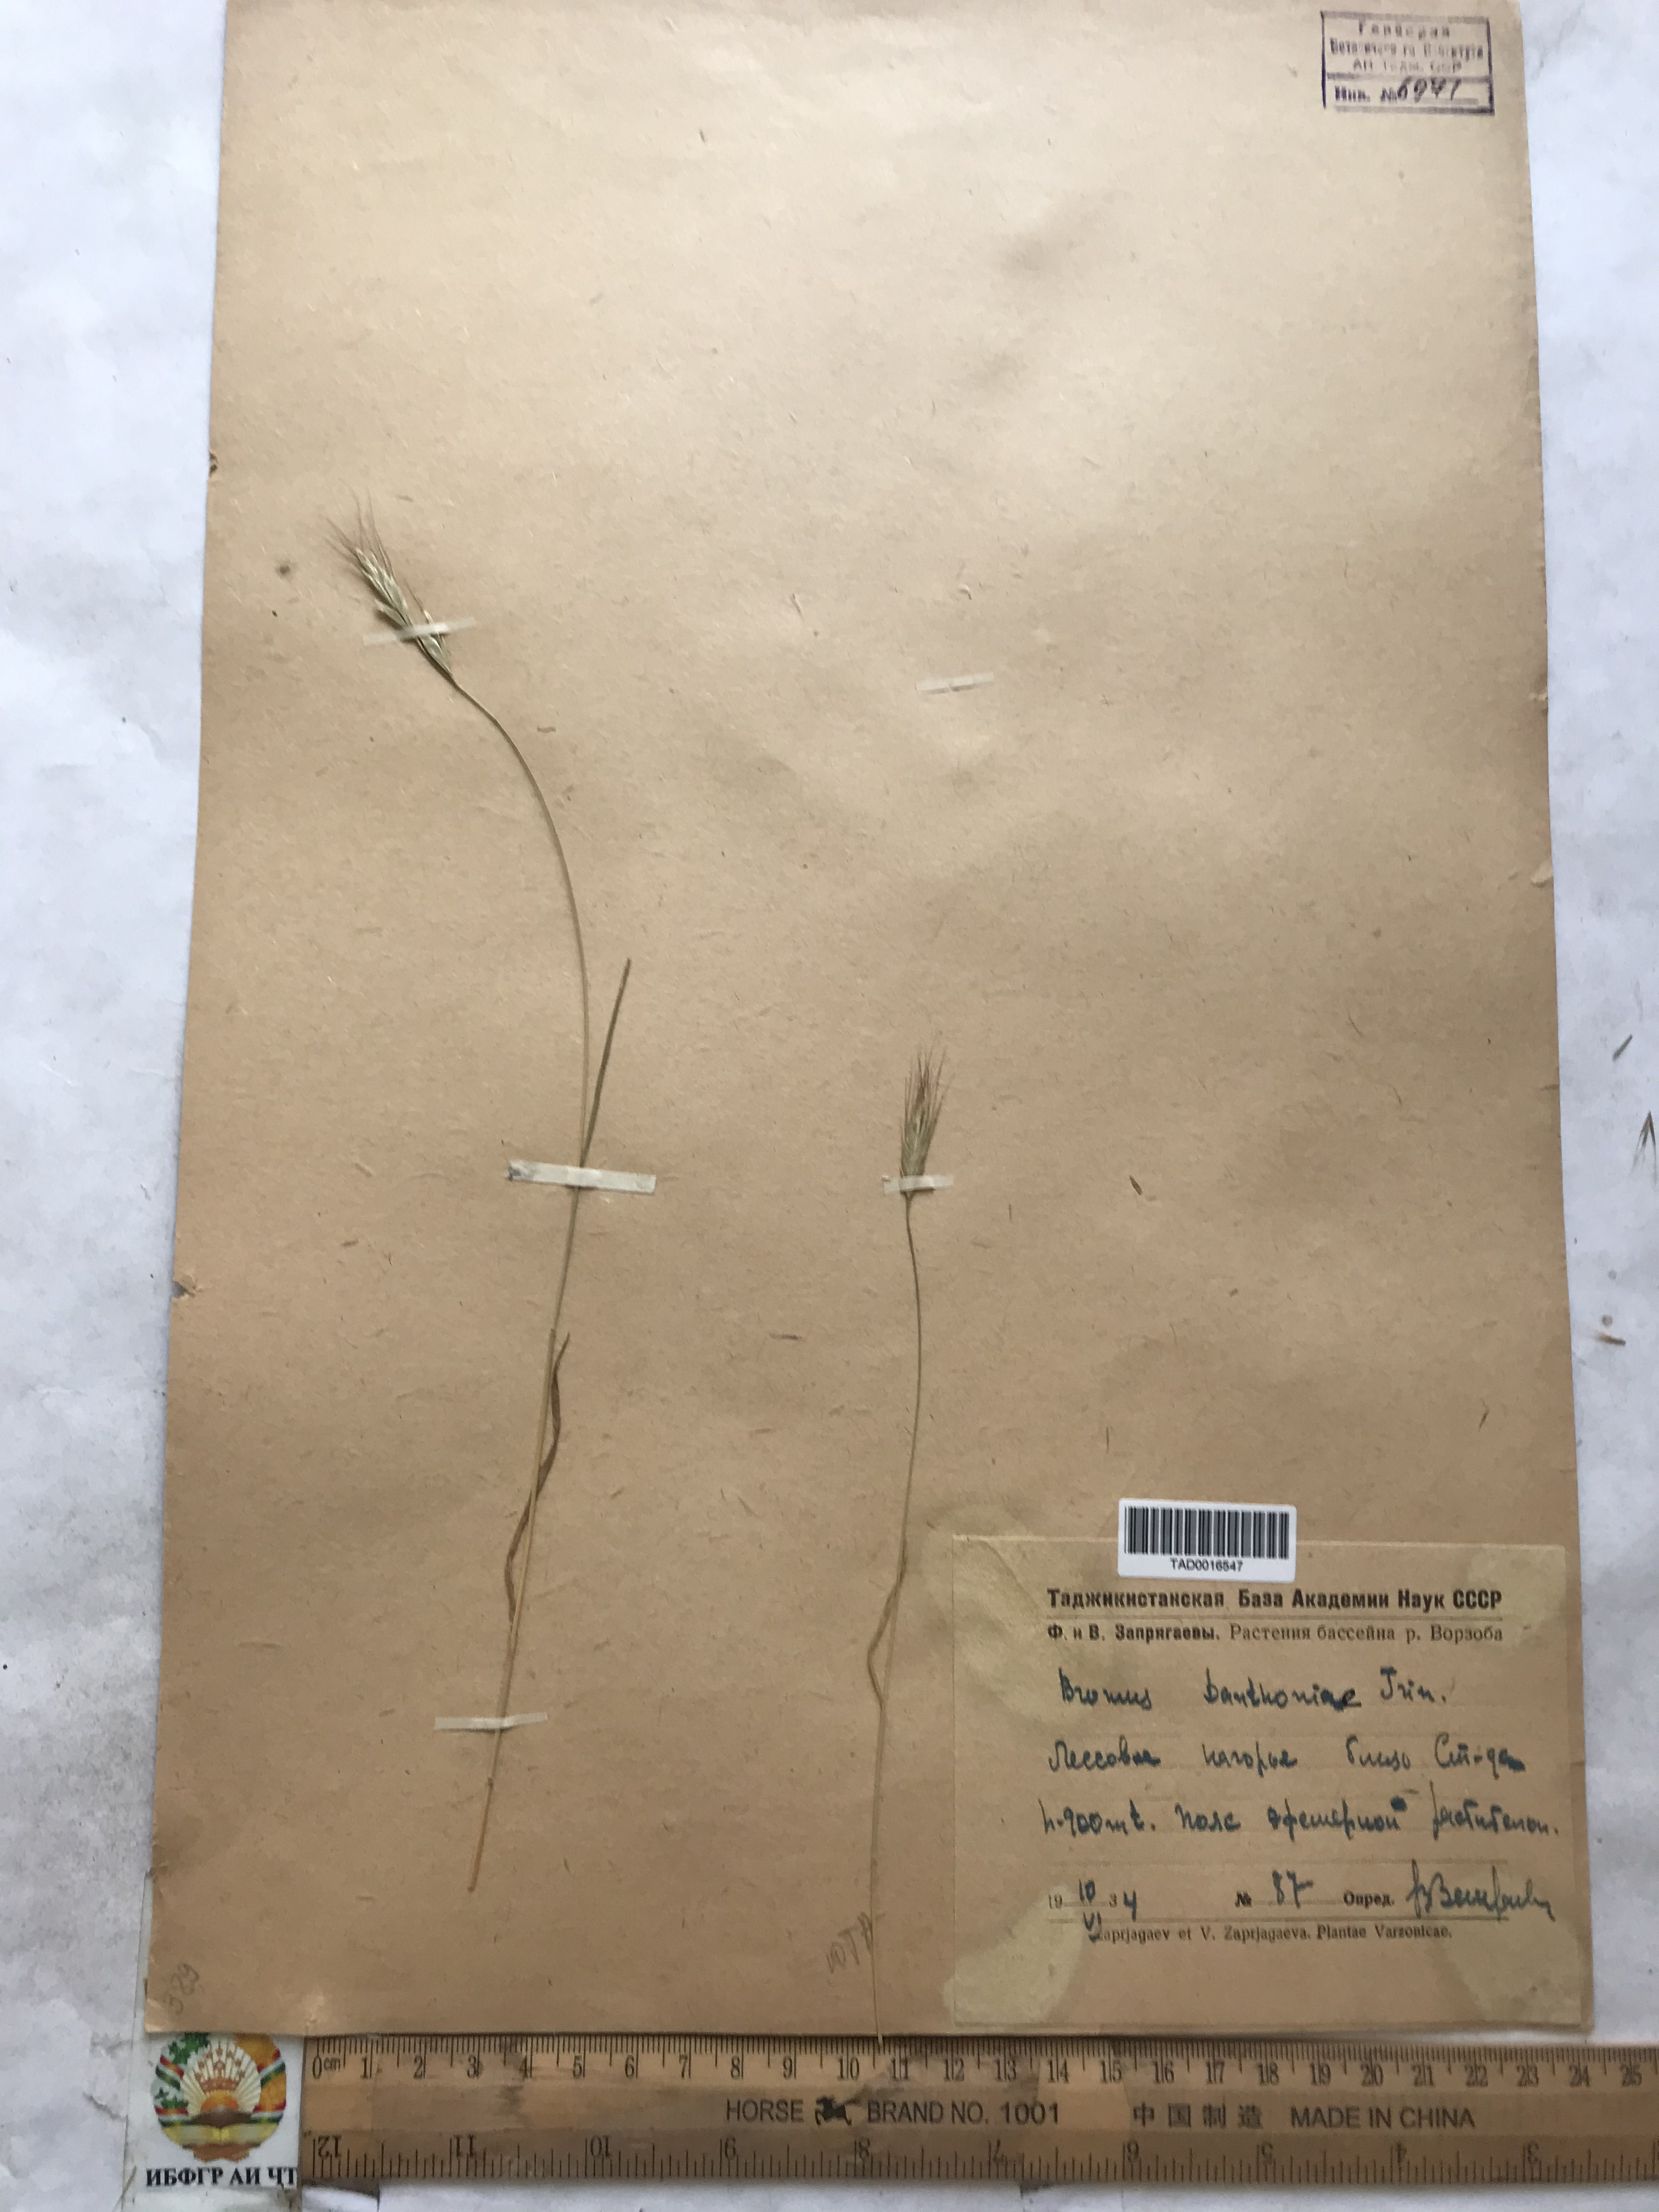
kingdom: Plantae
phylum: Tracheophyta
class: Liliopsida
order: Poales
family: Poaceae
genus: Bromus
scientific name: Bromus danthoniae
